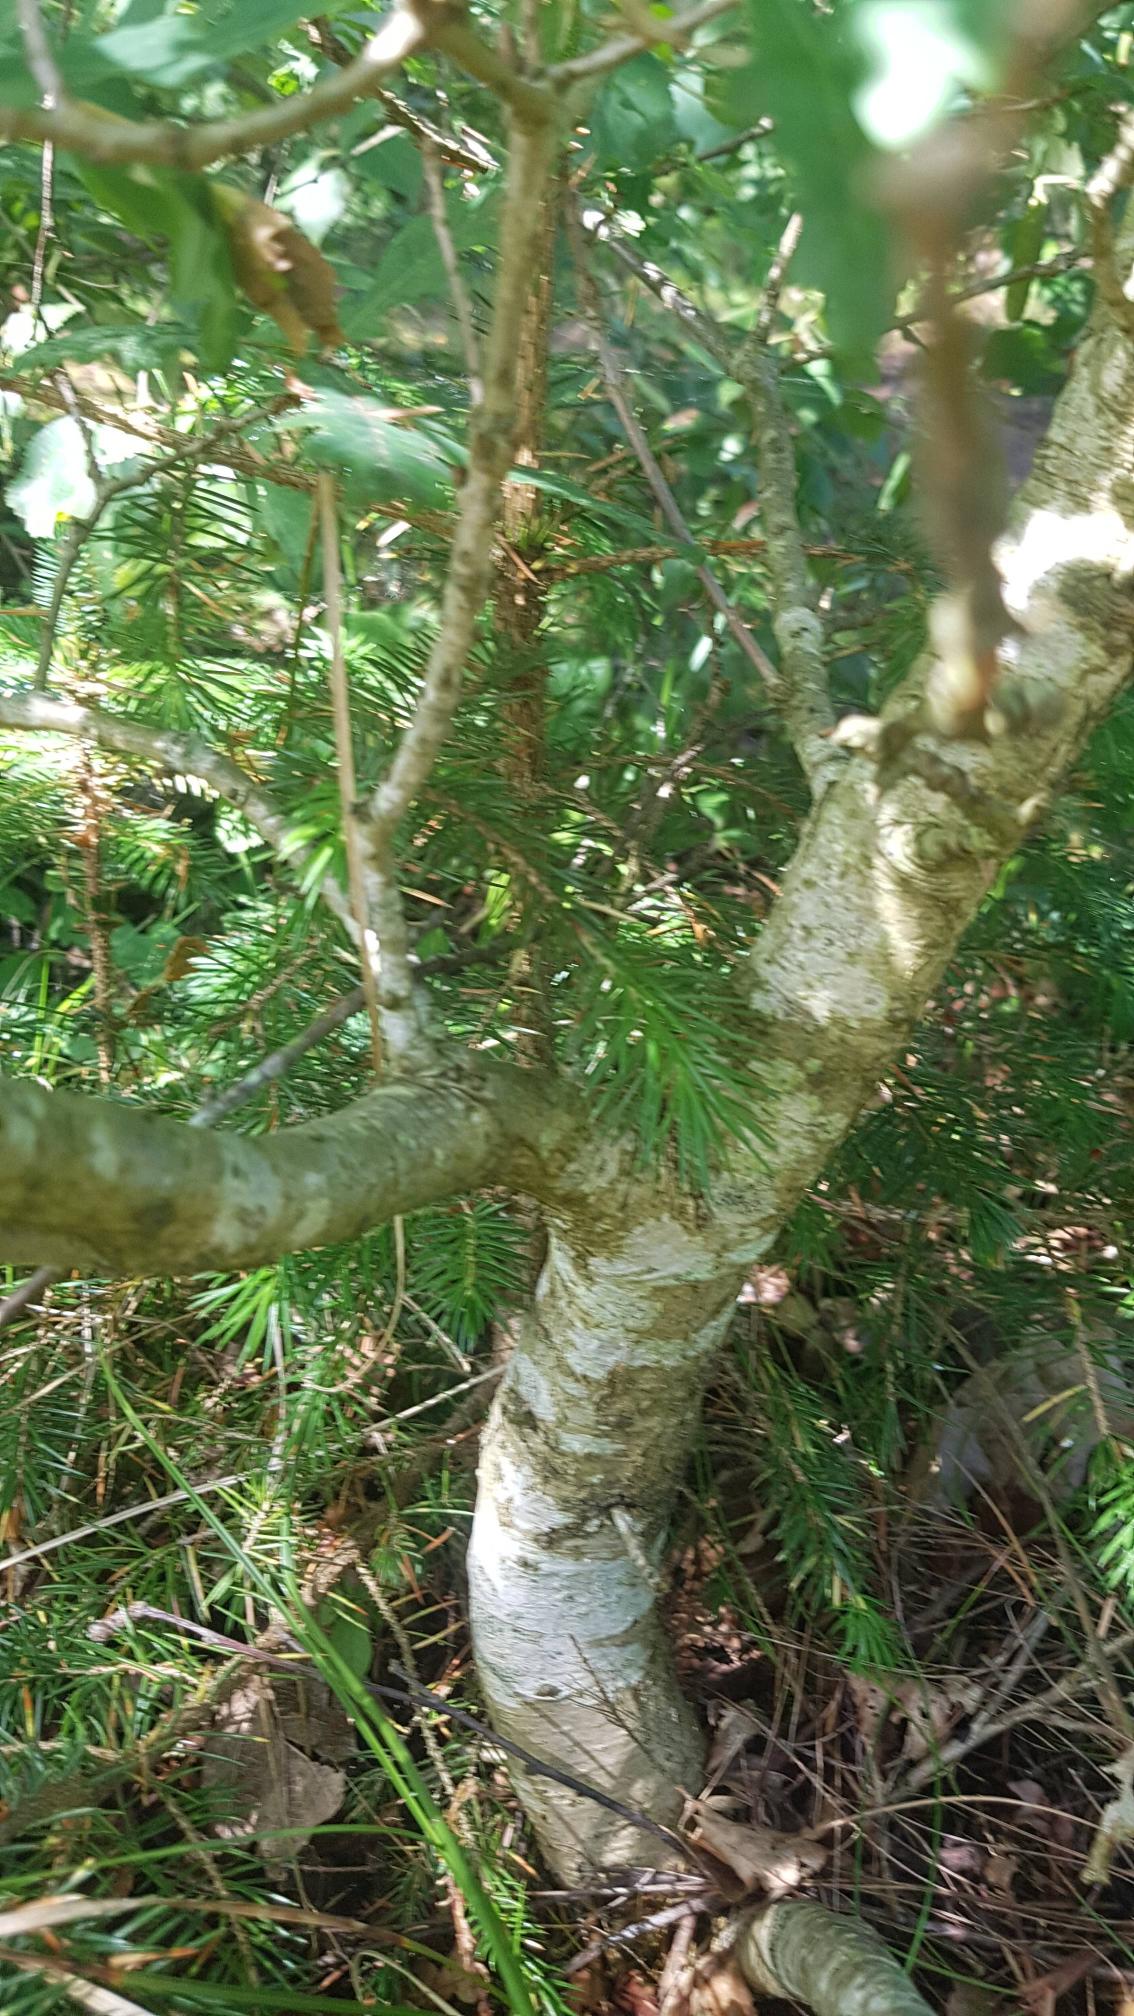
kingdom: Plantae
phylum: Tracheophyta
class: Magnoliopsida
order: Fagales
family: Fagaceae
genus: Quercus
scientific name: Quercus robur
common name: Stilk-eg/almindelig eg
